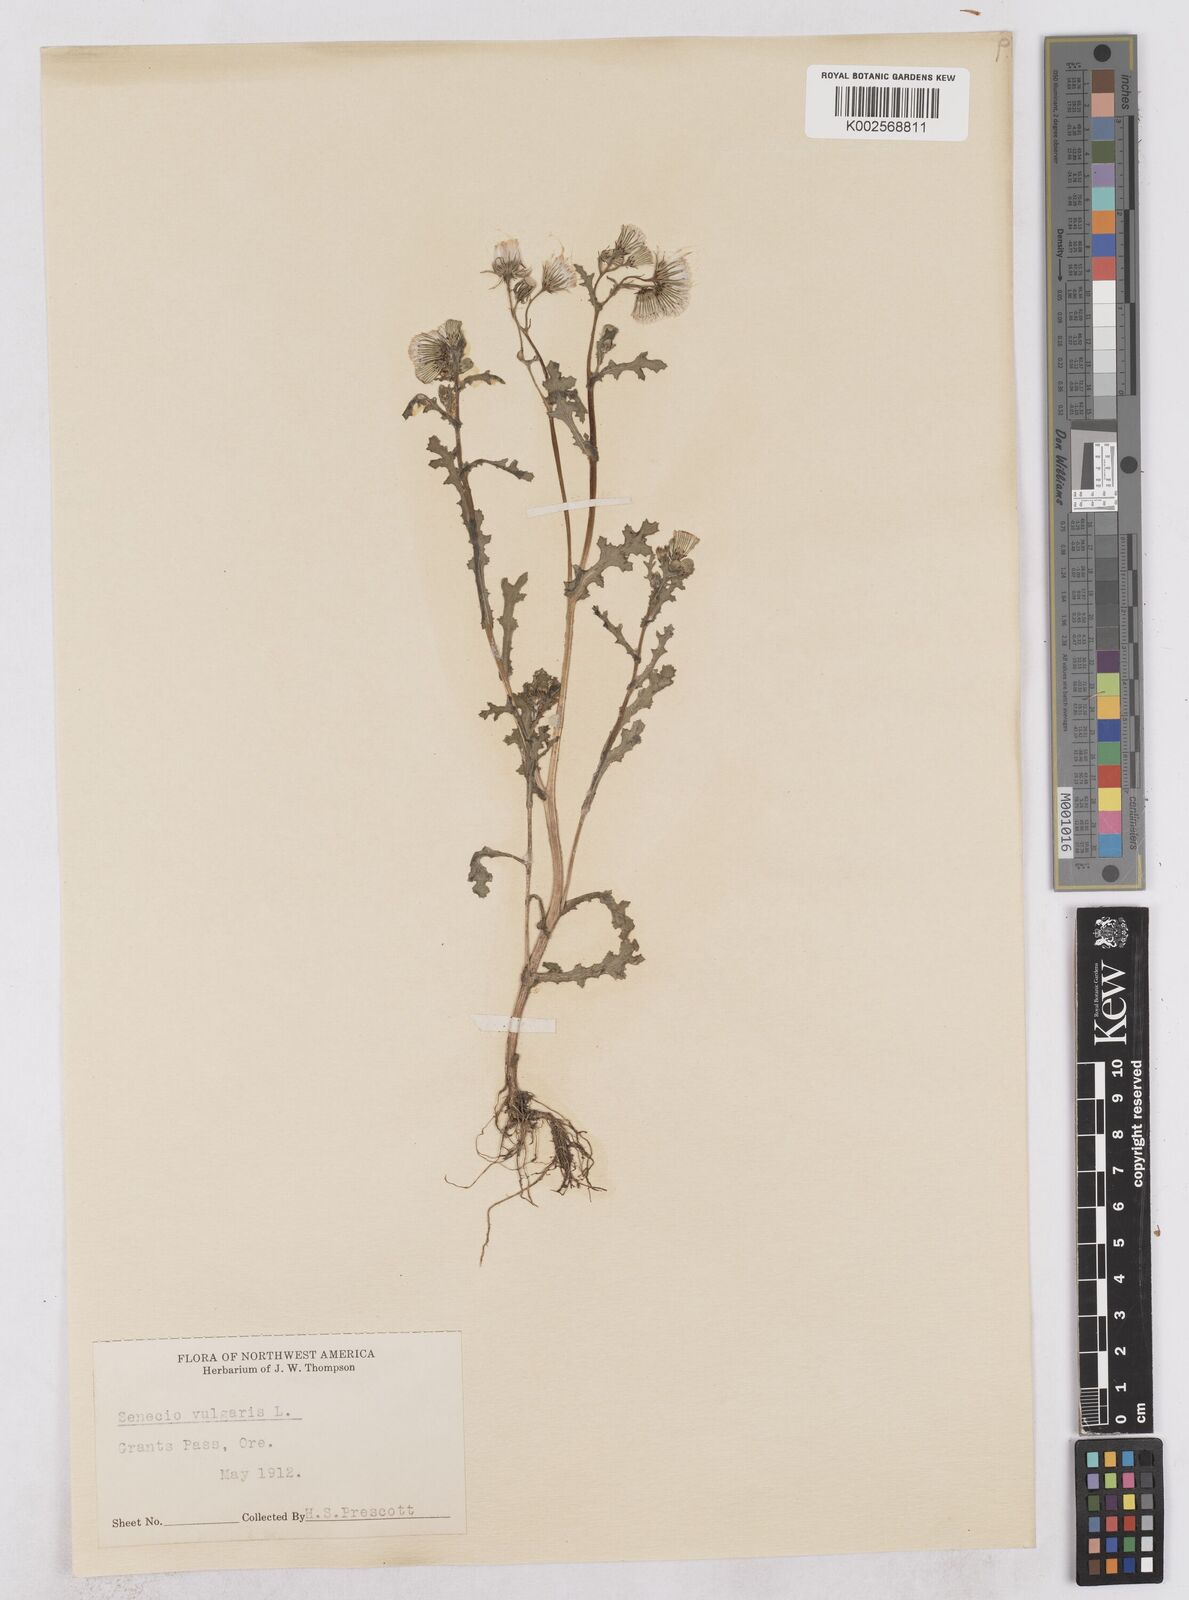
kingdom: Plantae
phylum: Tracheophyta
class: Magnoliopsida
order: Asterales
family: Asteraceae
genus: Senecio
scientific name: Senecio vulgaris
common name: Old-man-in-the-spring
